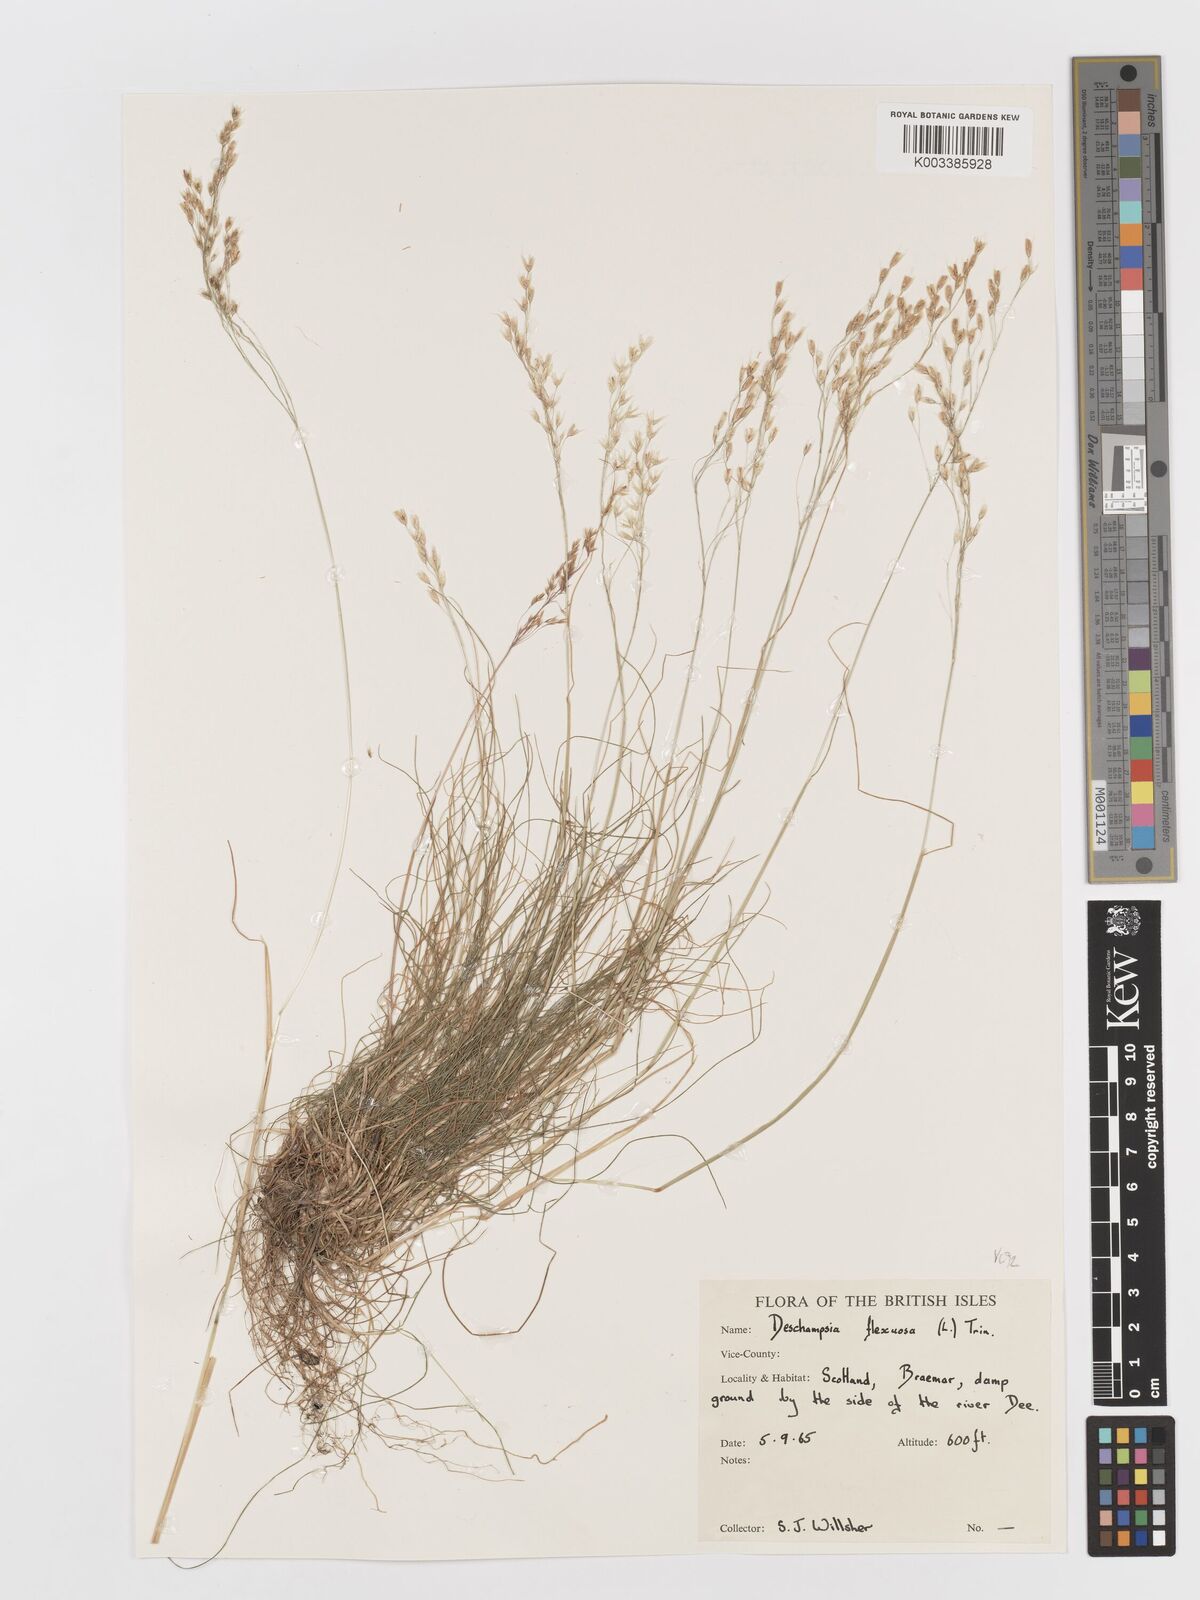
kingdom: Plantae
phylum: Tracheophyta
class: Liliopsida
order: Poales
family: Poaceae
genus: Avenella
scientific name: Avenella flexuosa
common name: Wavy hairgrass
